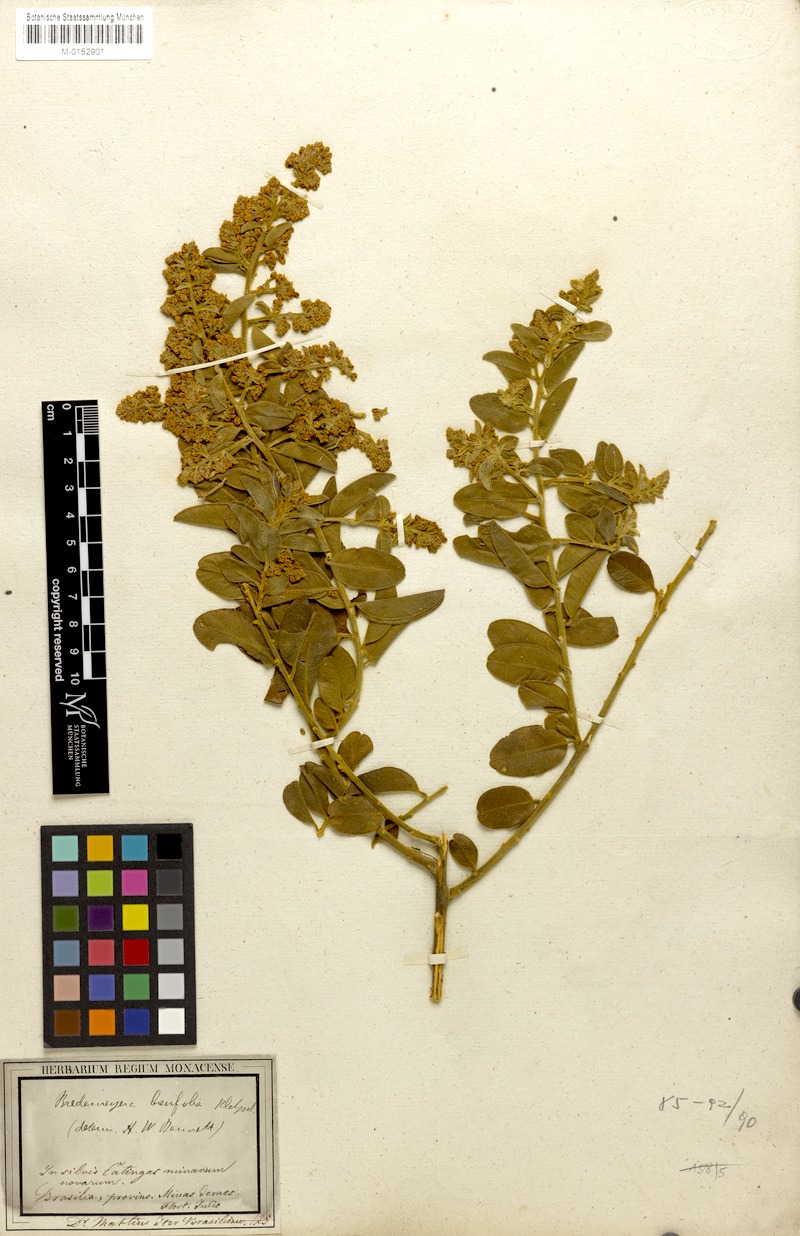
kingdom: Plantae
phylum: Tracheophyta
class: Magnoliopsida
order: Fabales
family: Polygalaceae
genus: Bredemeyera
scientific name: Bredemeyera brevifolia
